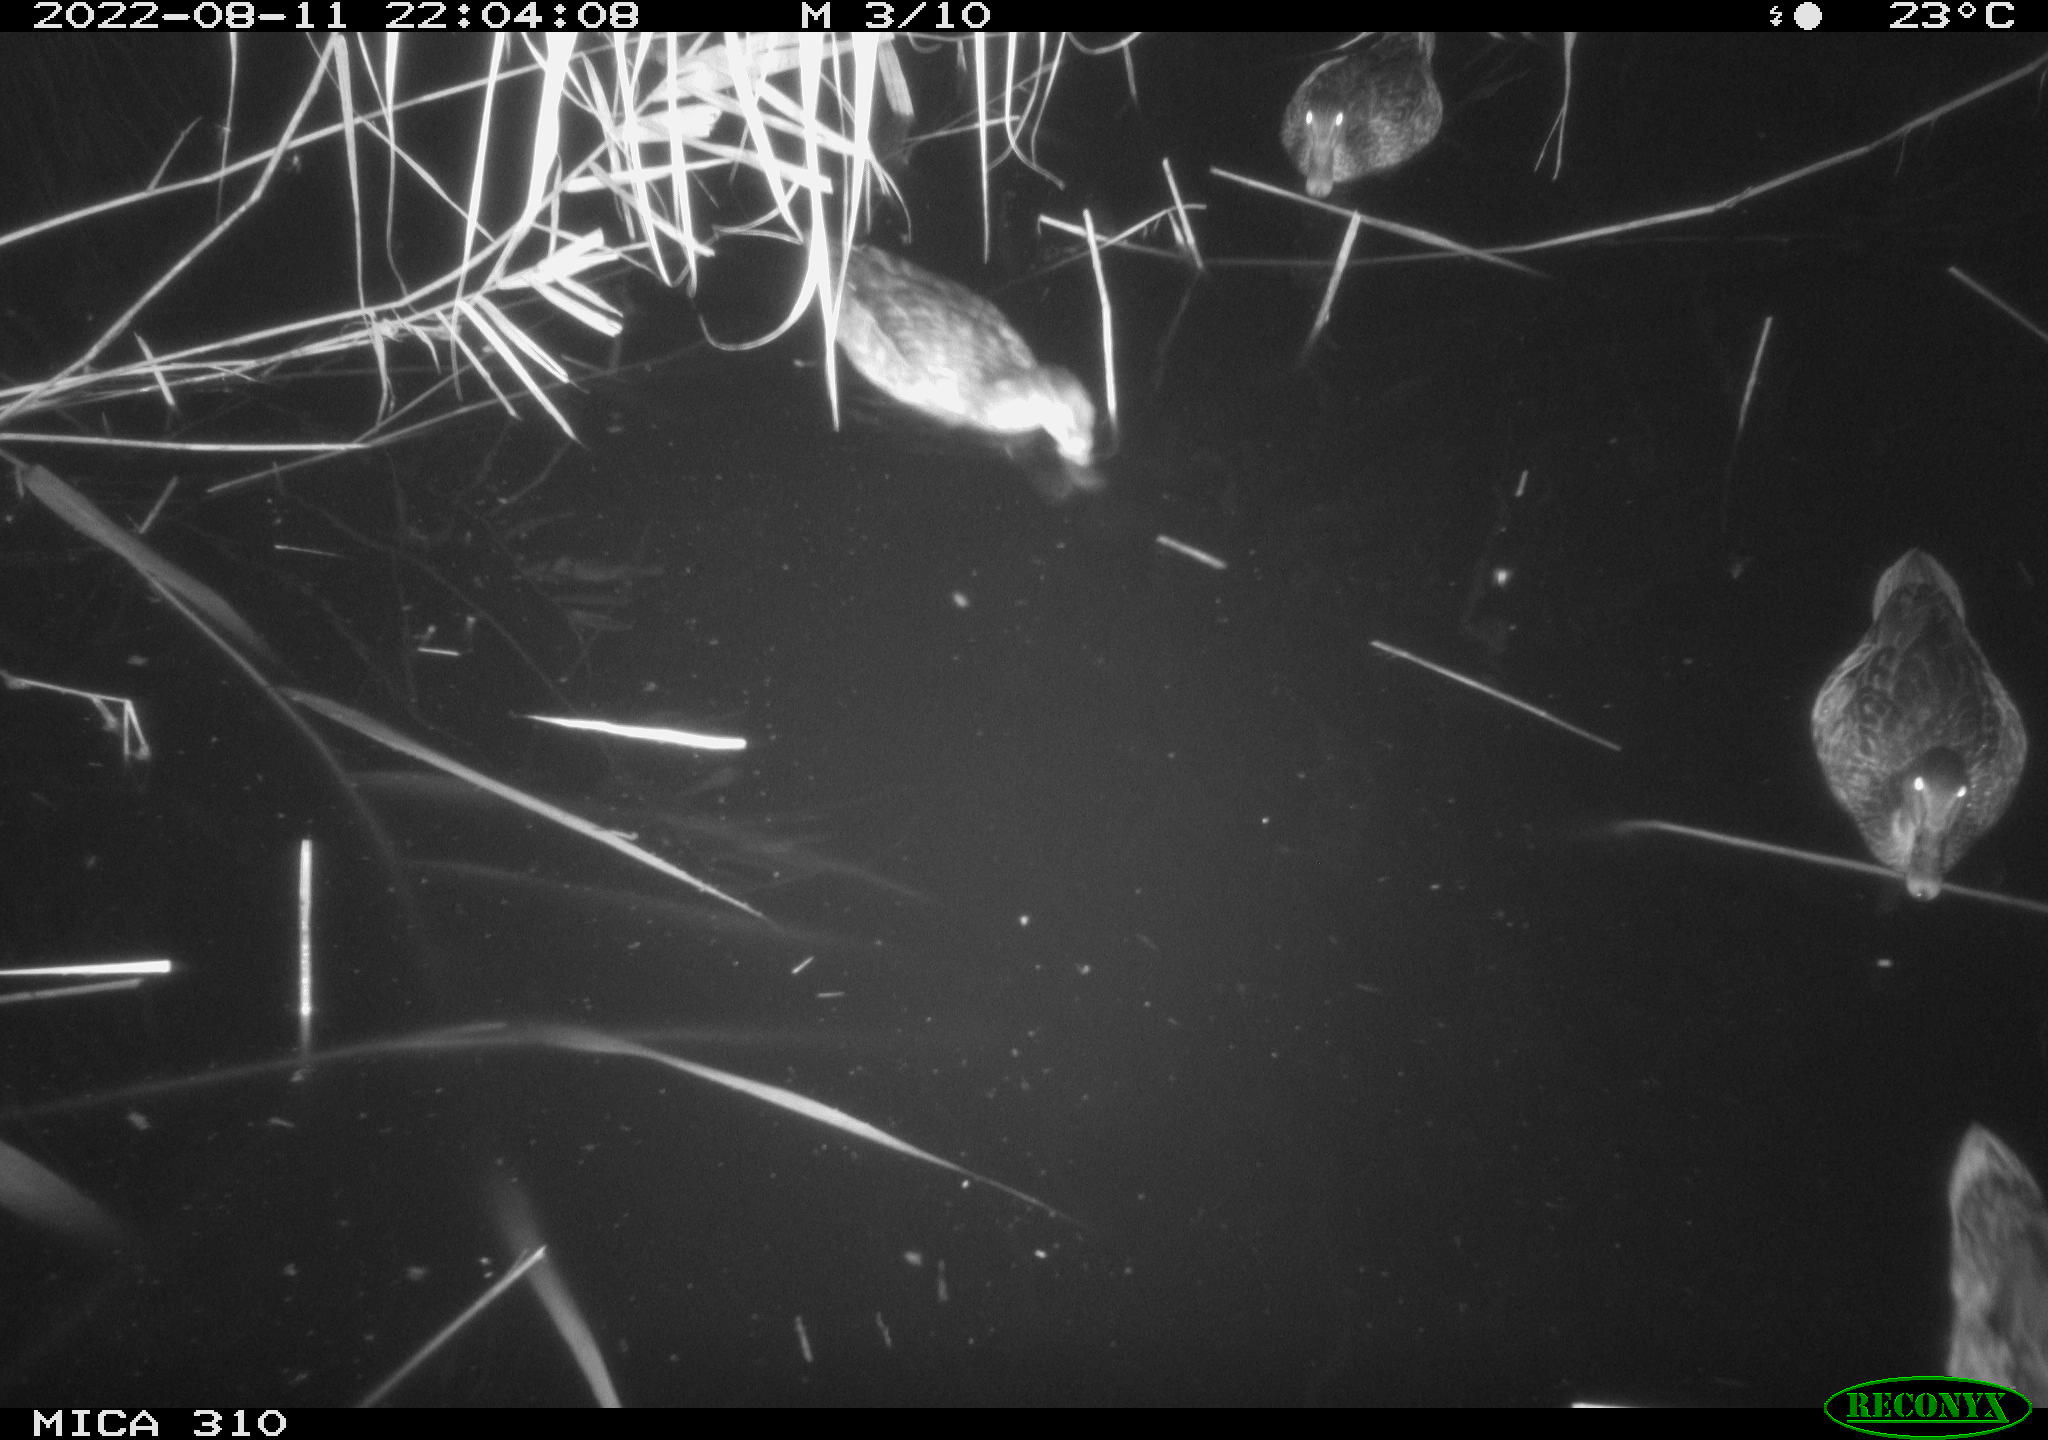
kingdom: Animalia
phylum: Chordata
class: Aves
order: Anseriformes
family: Anatidae
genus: Mareca
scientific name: Mareca strepera
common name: Gadwall
